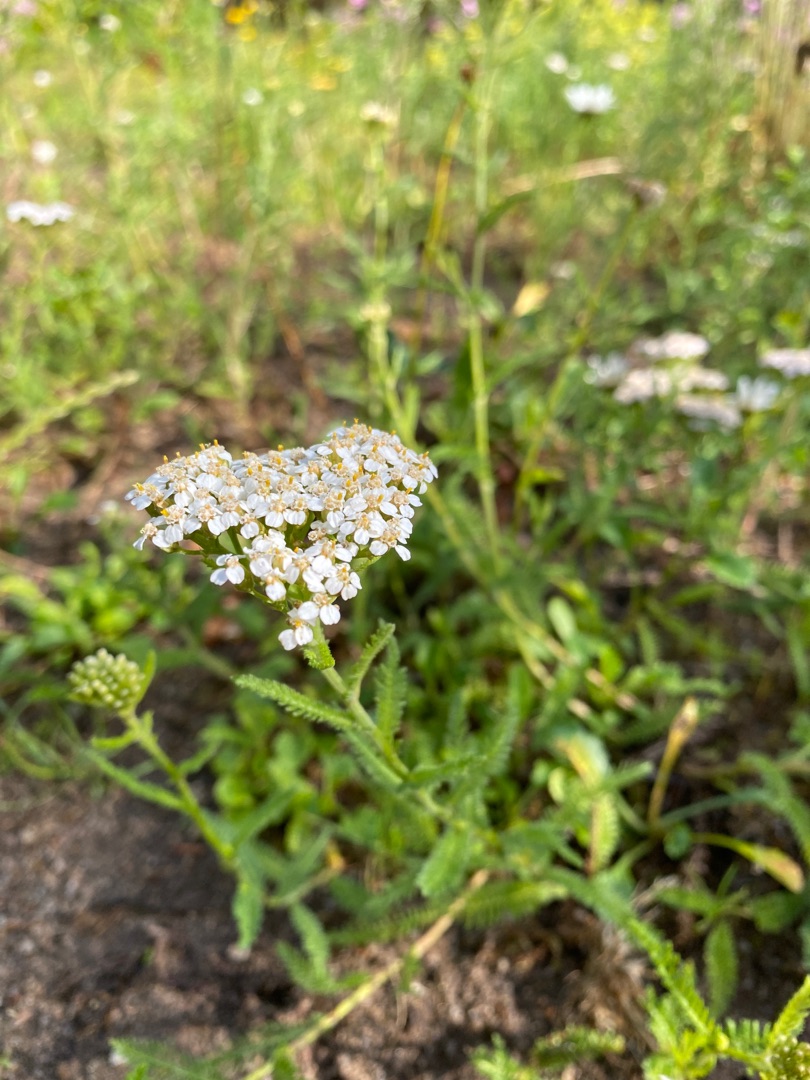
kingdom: Plantae
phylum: Tracheophyta
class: Magnoliopsida
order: Asterales
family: Asteraceae
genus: Achillea
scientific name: Achillea millefolium
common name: Almindelig røllike
